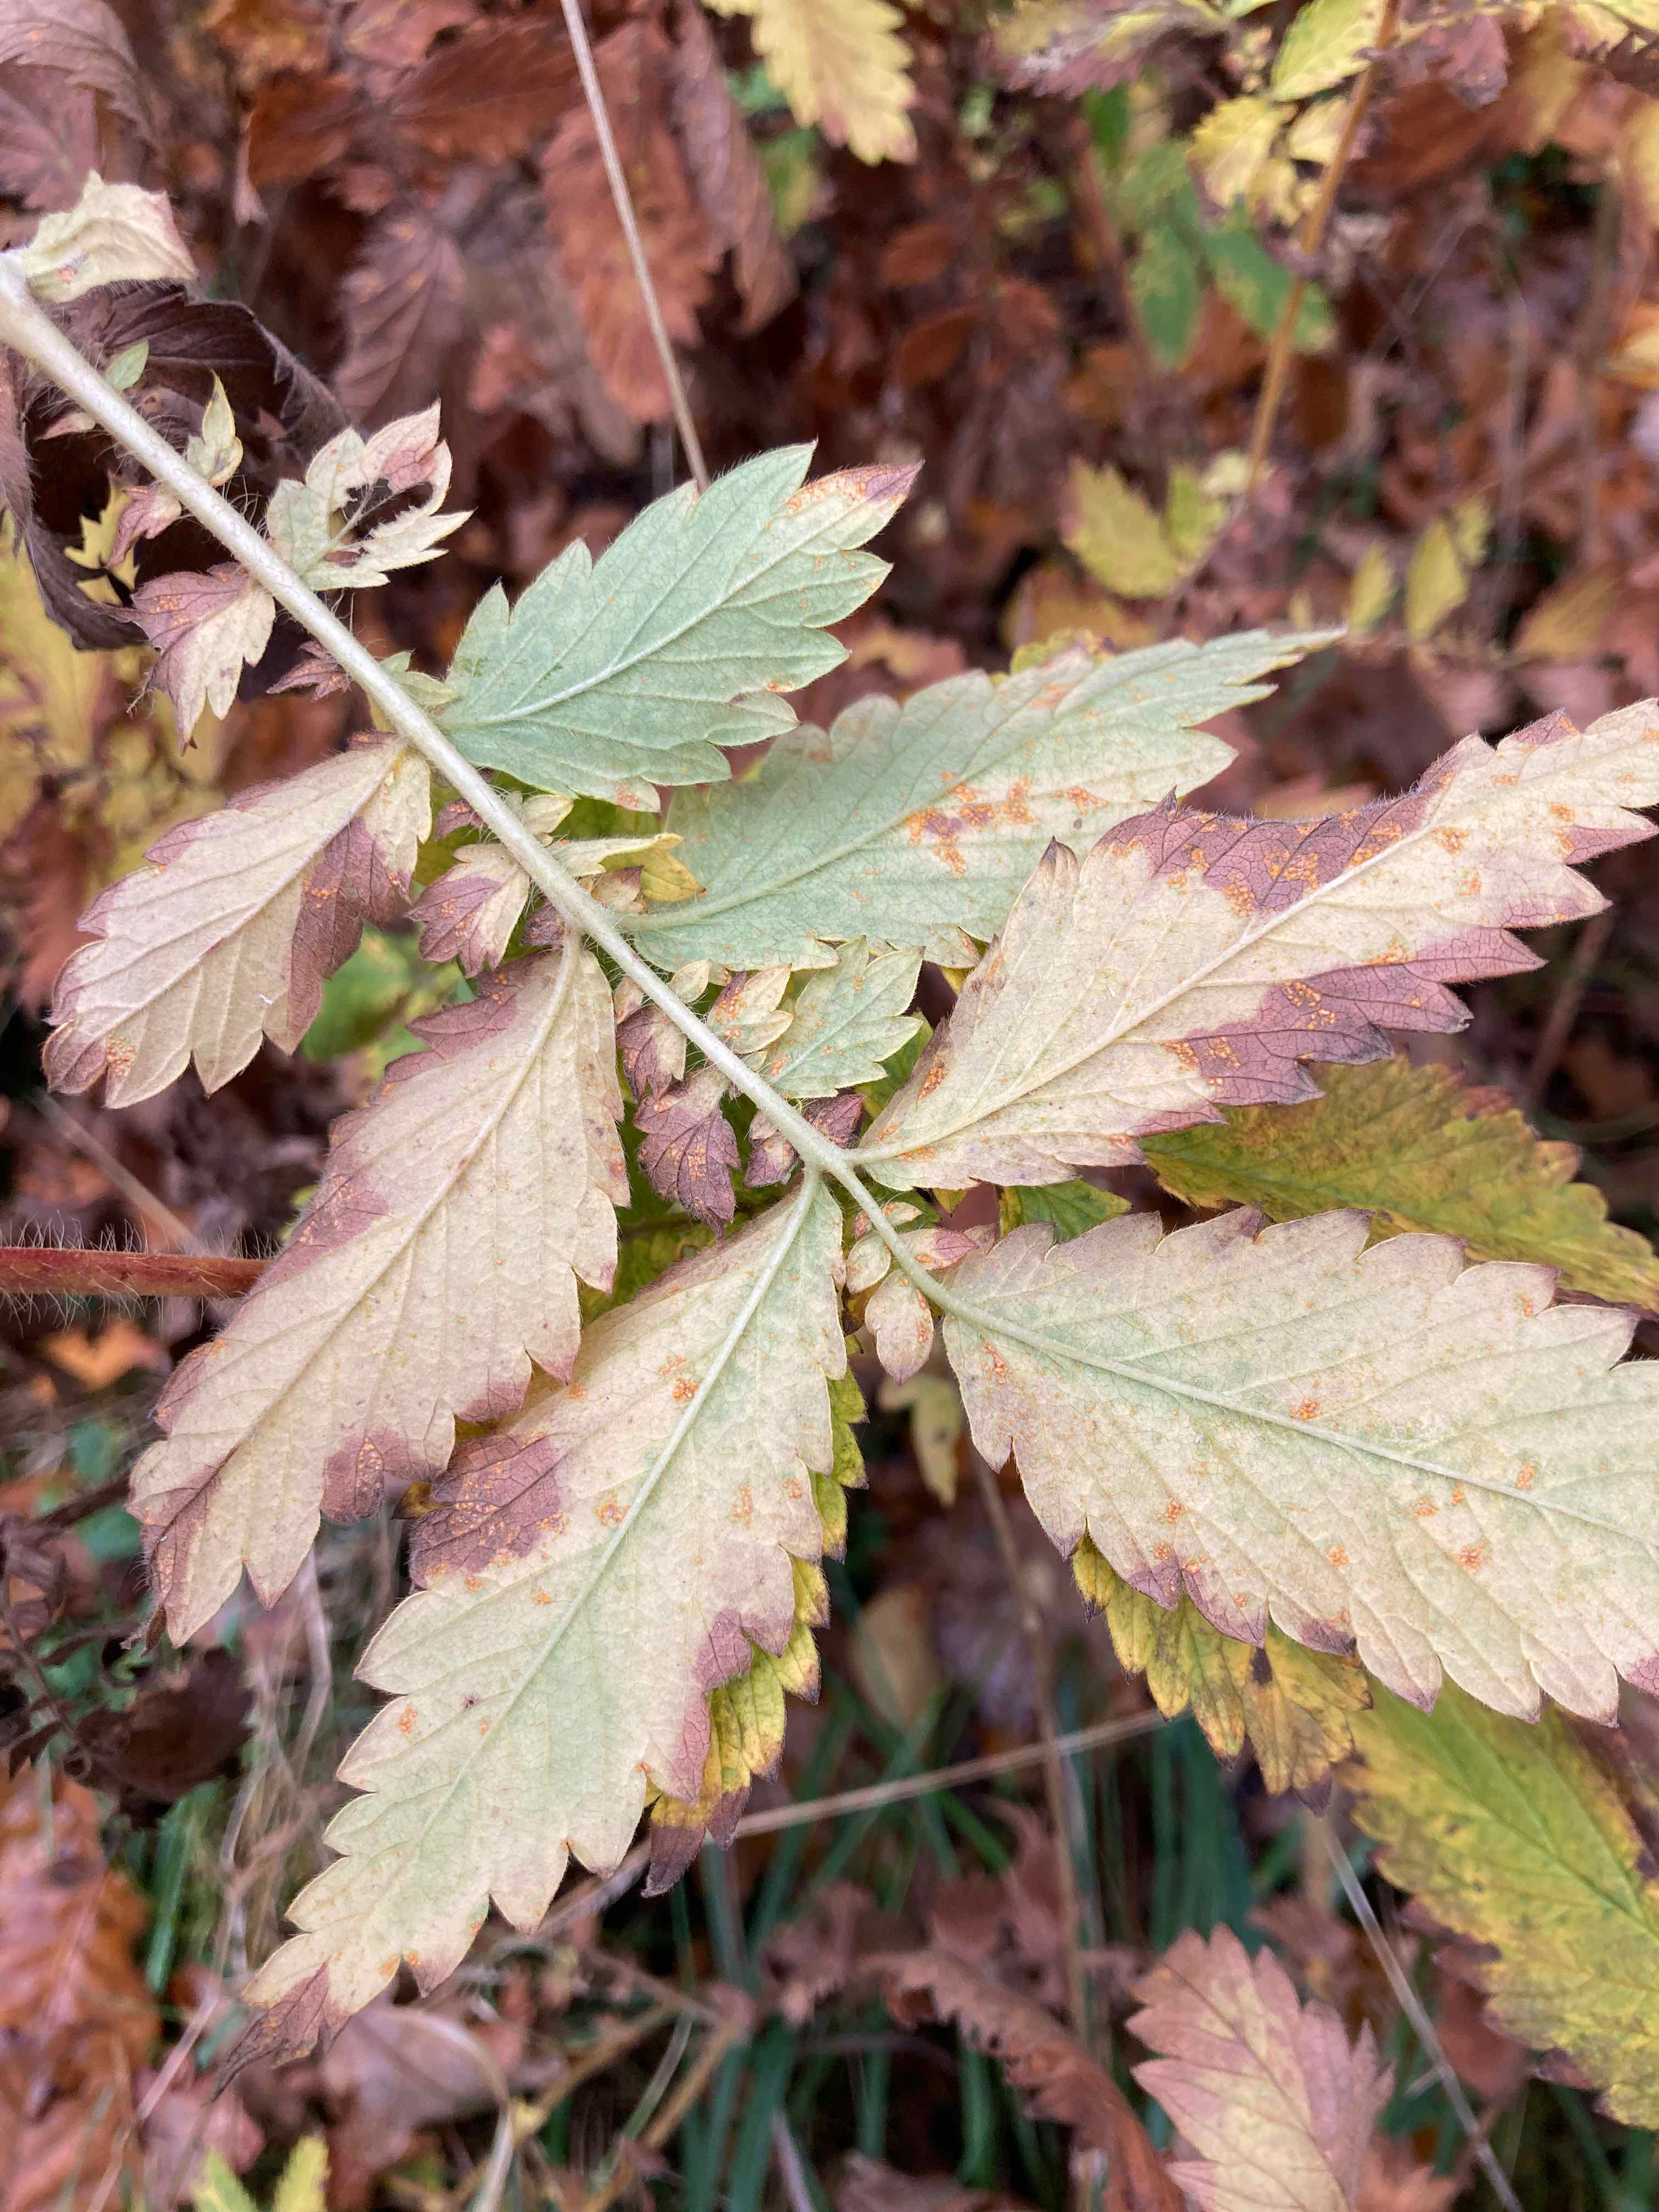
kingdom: Fungi
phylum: Basidiomycota
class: Pucciniomycetes
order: Pucciniales
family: Cronartiaceae
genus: Quasipucciniastrum
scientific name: Quasipucciniastrum ochraceum
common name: agermåne-nålerust
